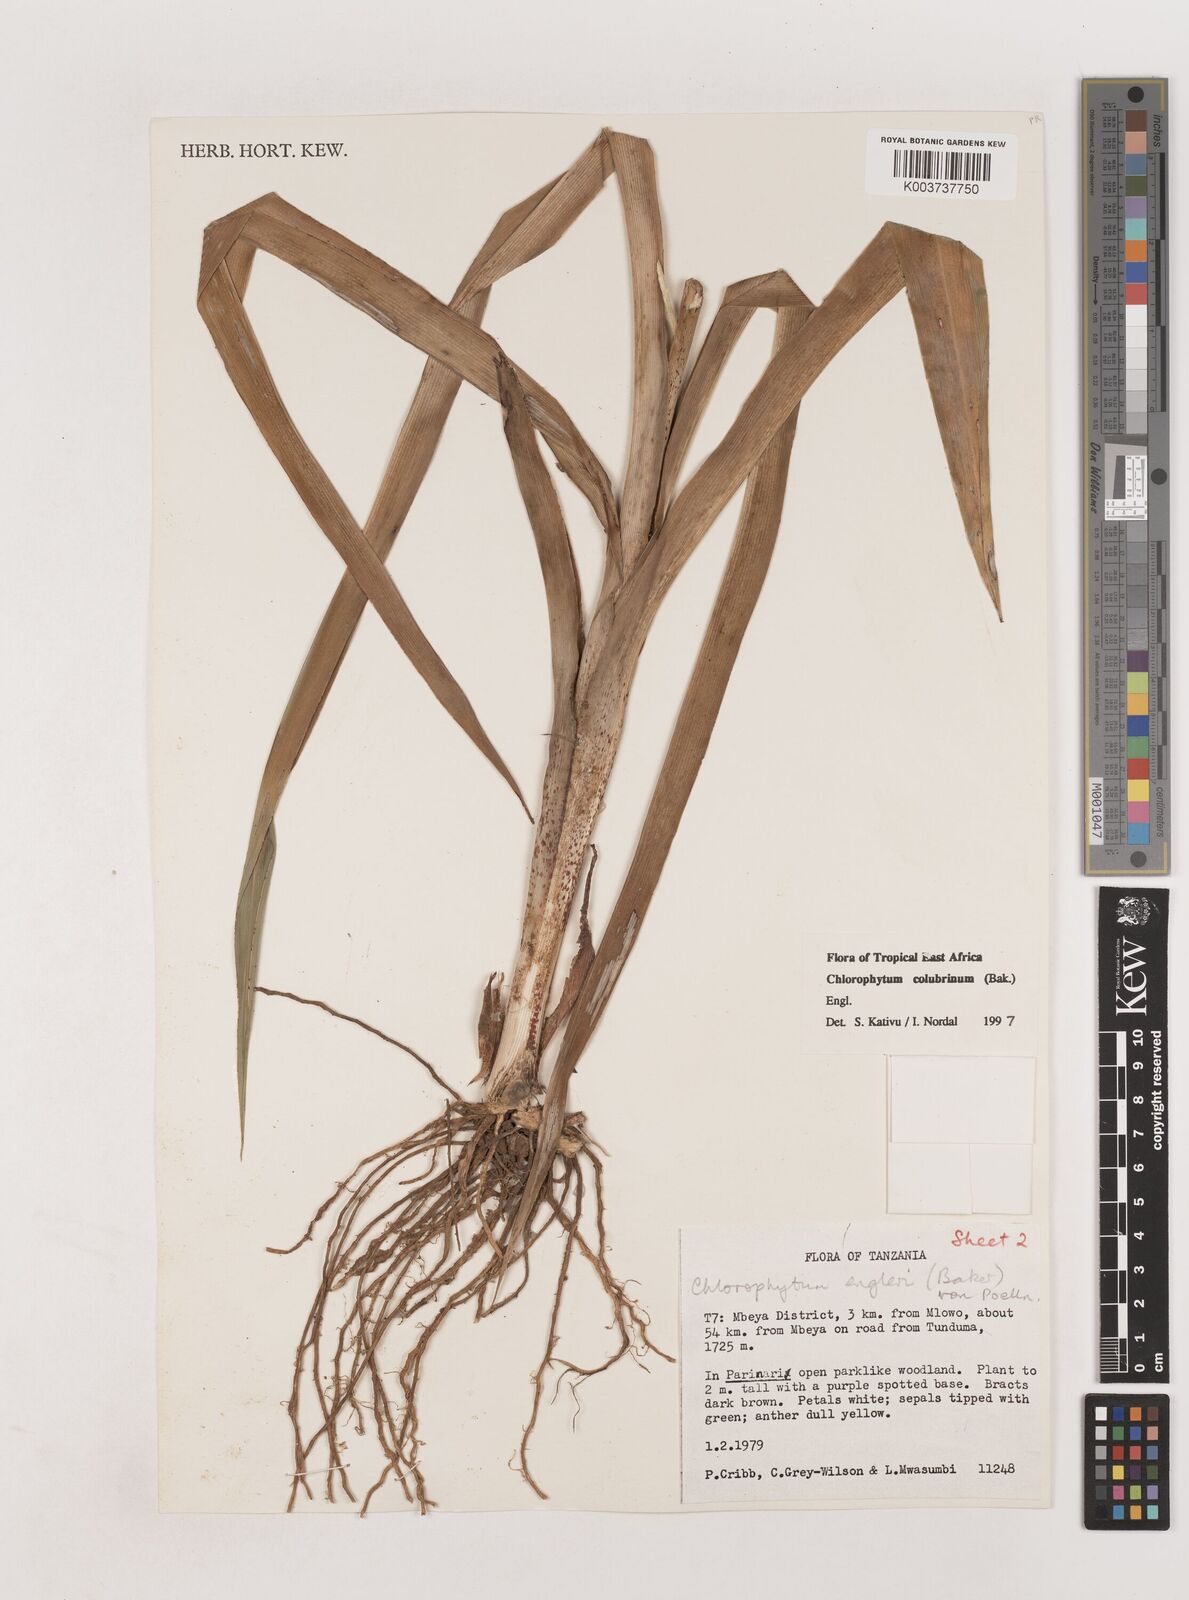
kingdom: Plantae
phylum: Tracheophyta
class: Liliopsida
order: Asparagales
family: Asparagaceae
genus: Chlorophytum
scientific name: Chlorophytum colubrinum
